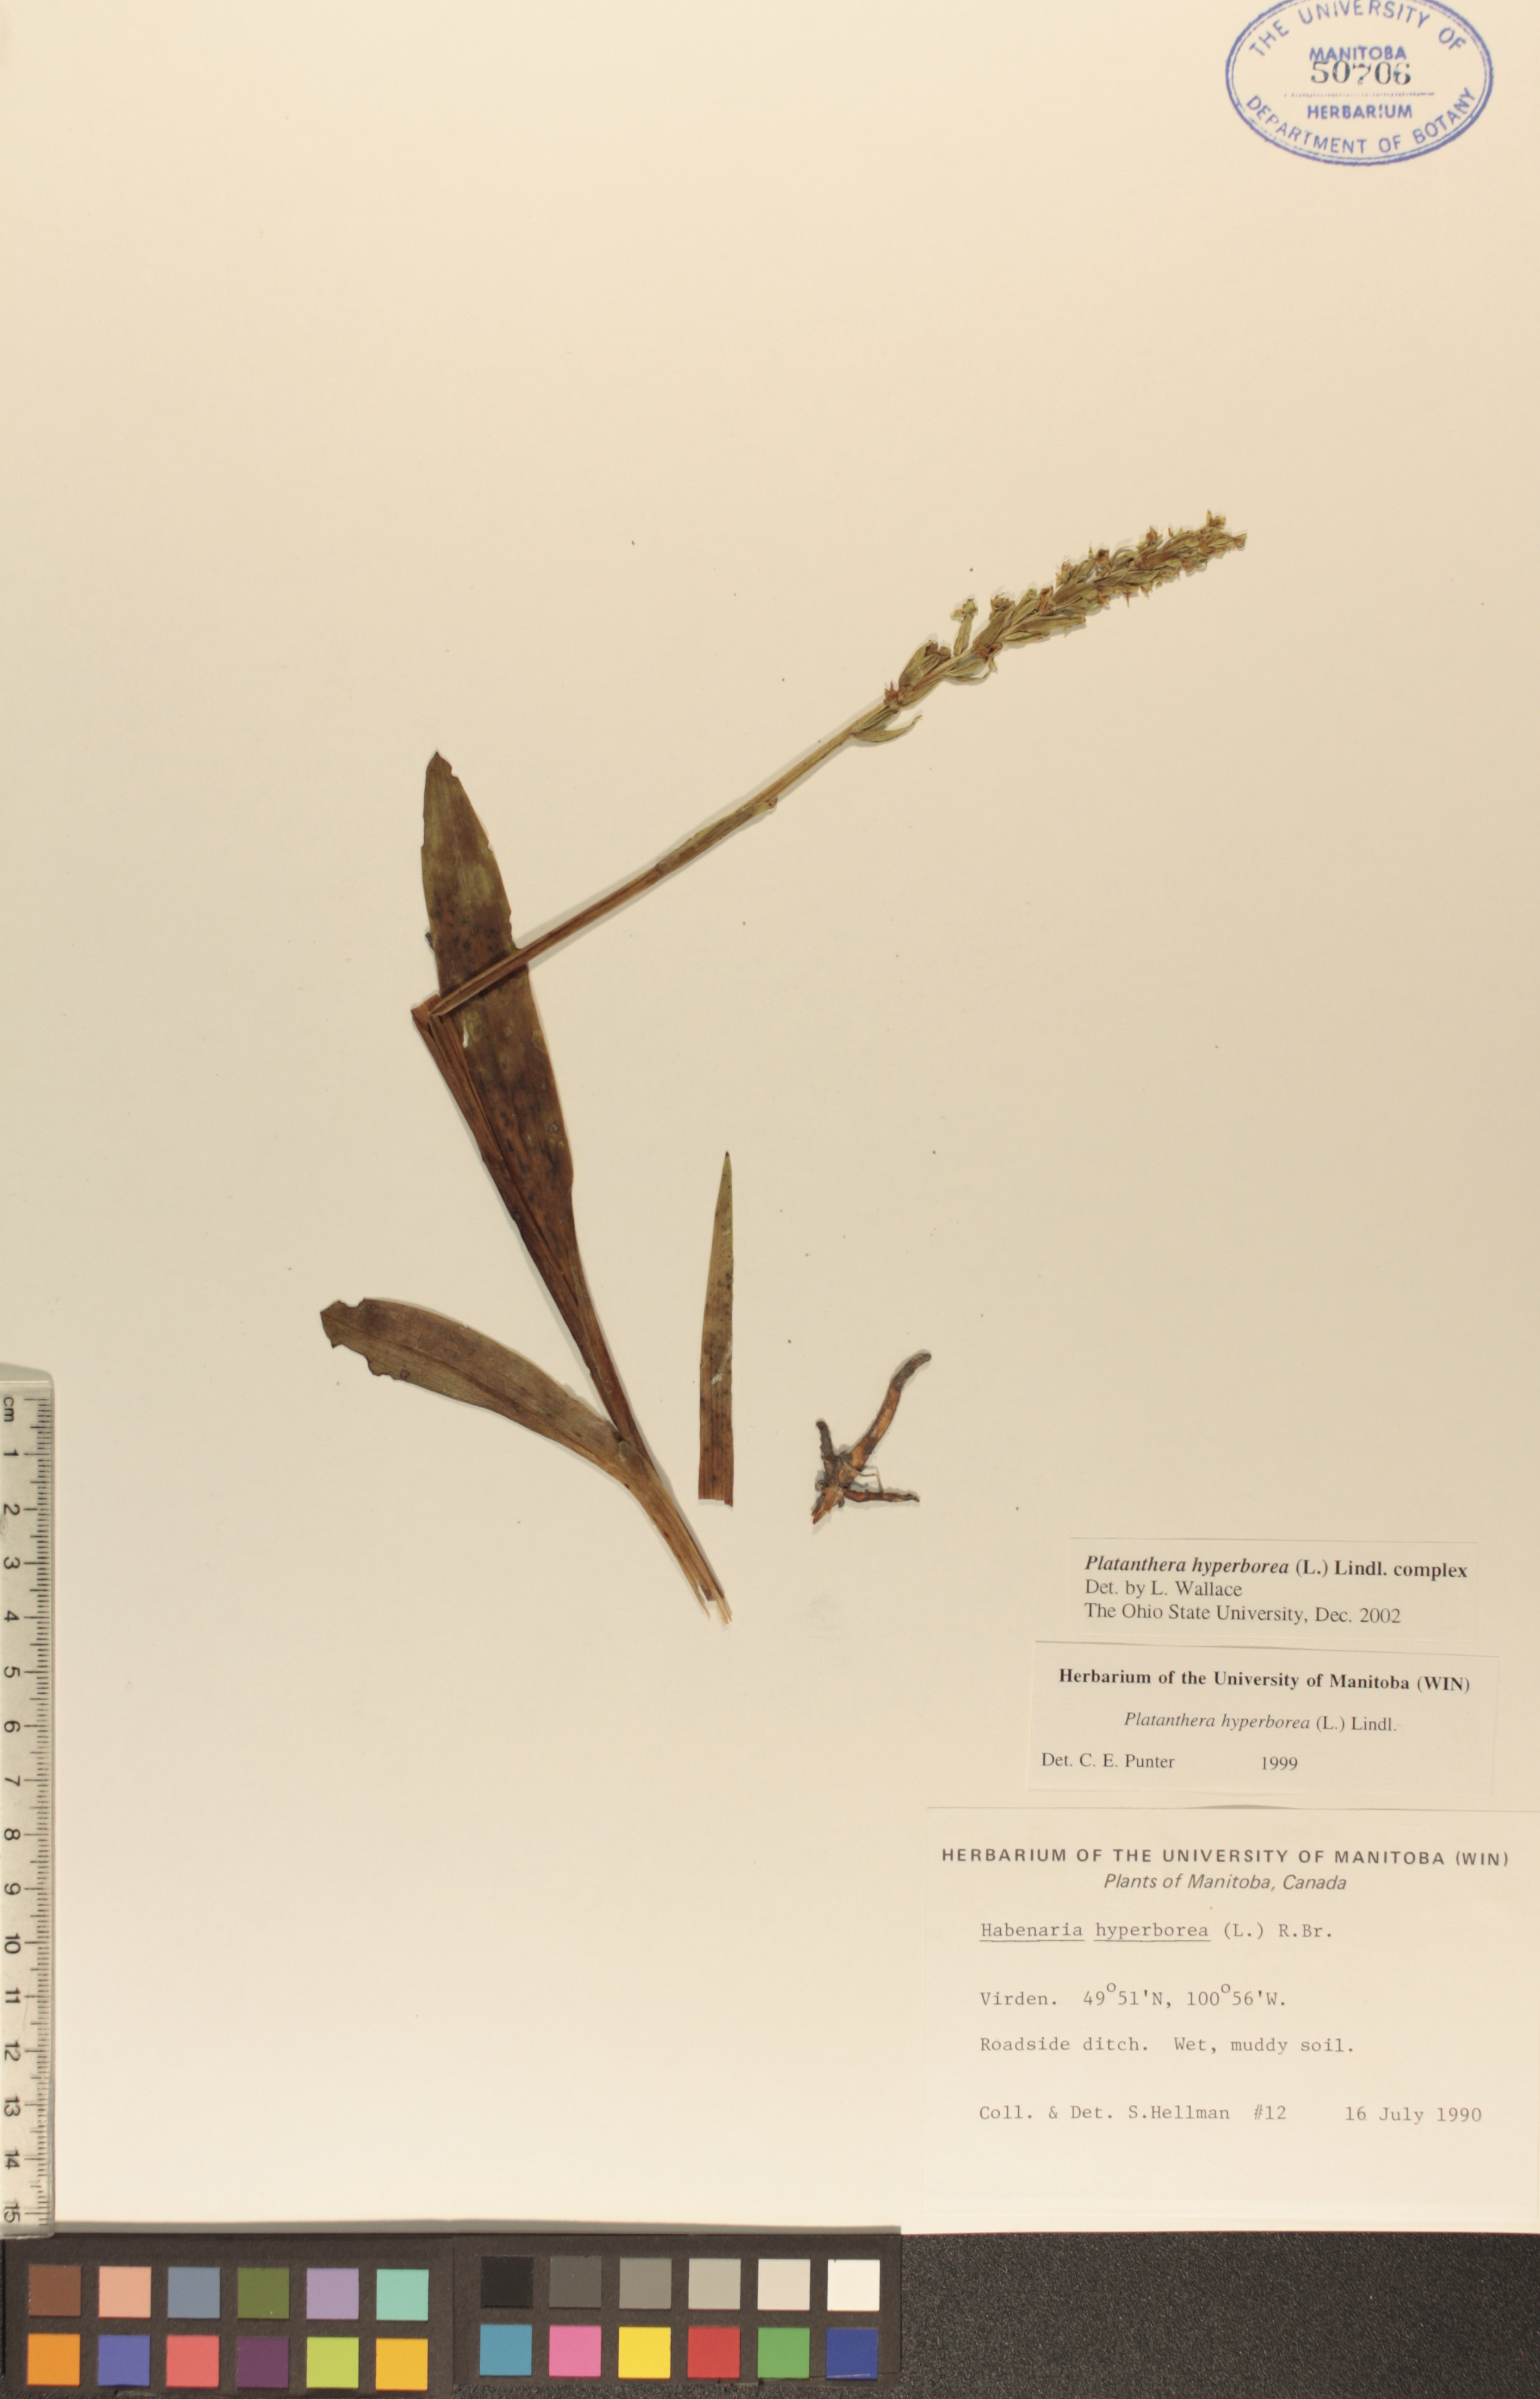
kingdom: Plantae
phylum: Tracheophyta
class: Liliopsida
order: Asparagales
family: Orchidaceae
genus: Platanthera
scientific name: Platanthera hyperborea
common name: Northern green orchid
